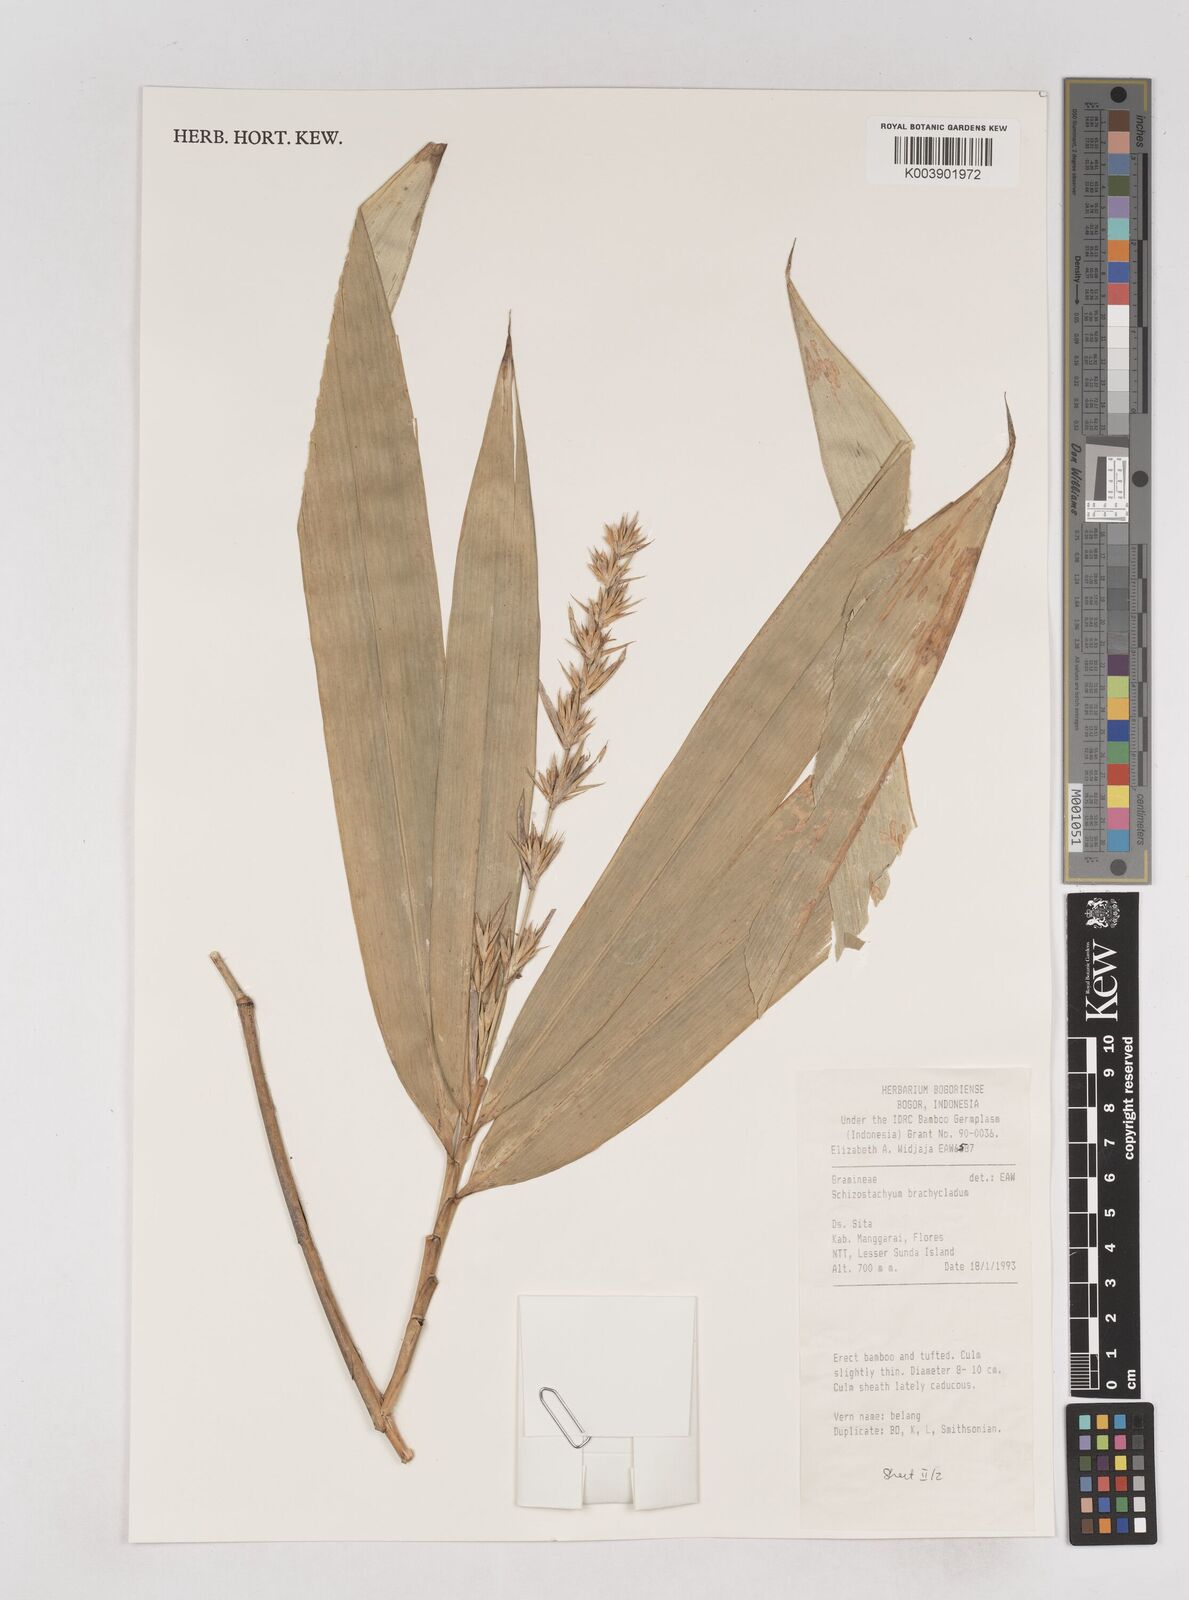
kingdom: Plantae
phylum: Tracheophyta
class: Liliopsida
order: Poales
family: Poaceae
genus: Schizostachyum
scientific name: Schizostachyum brachycladum
